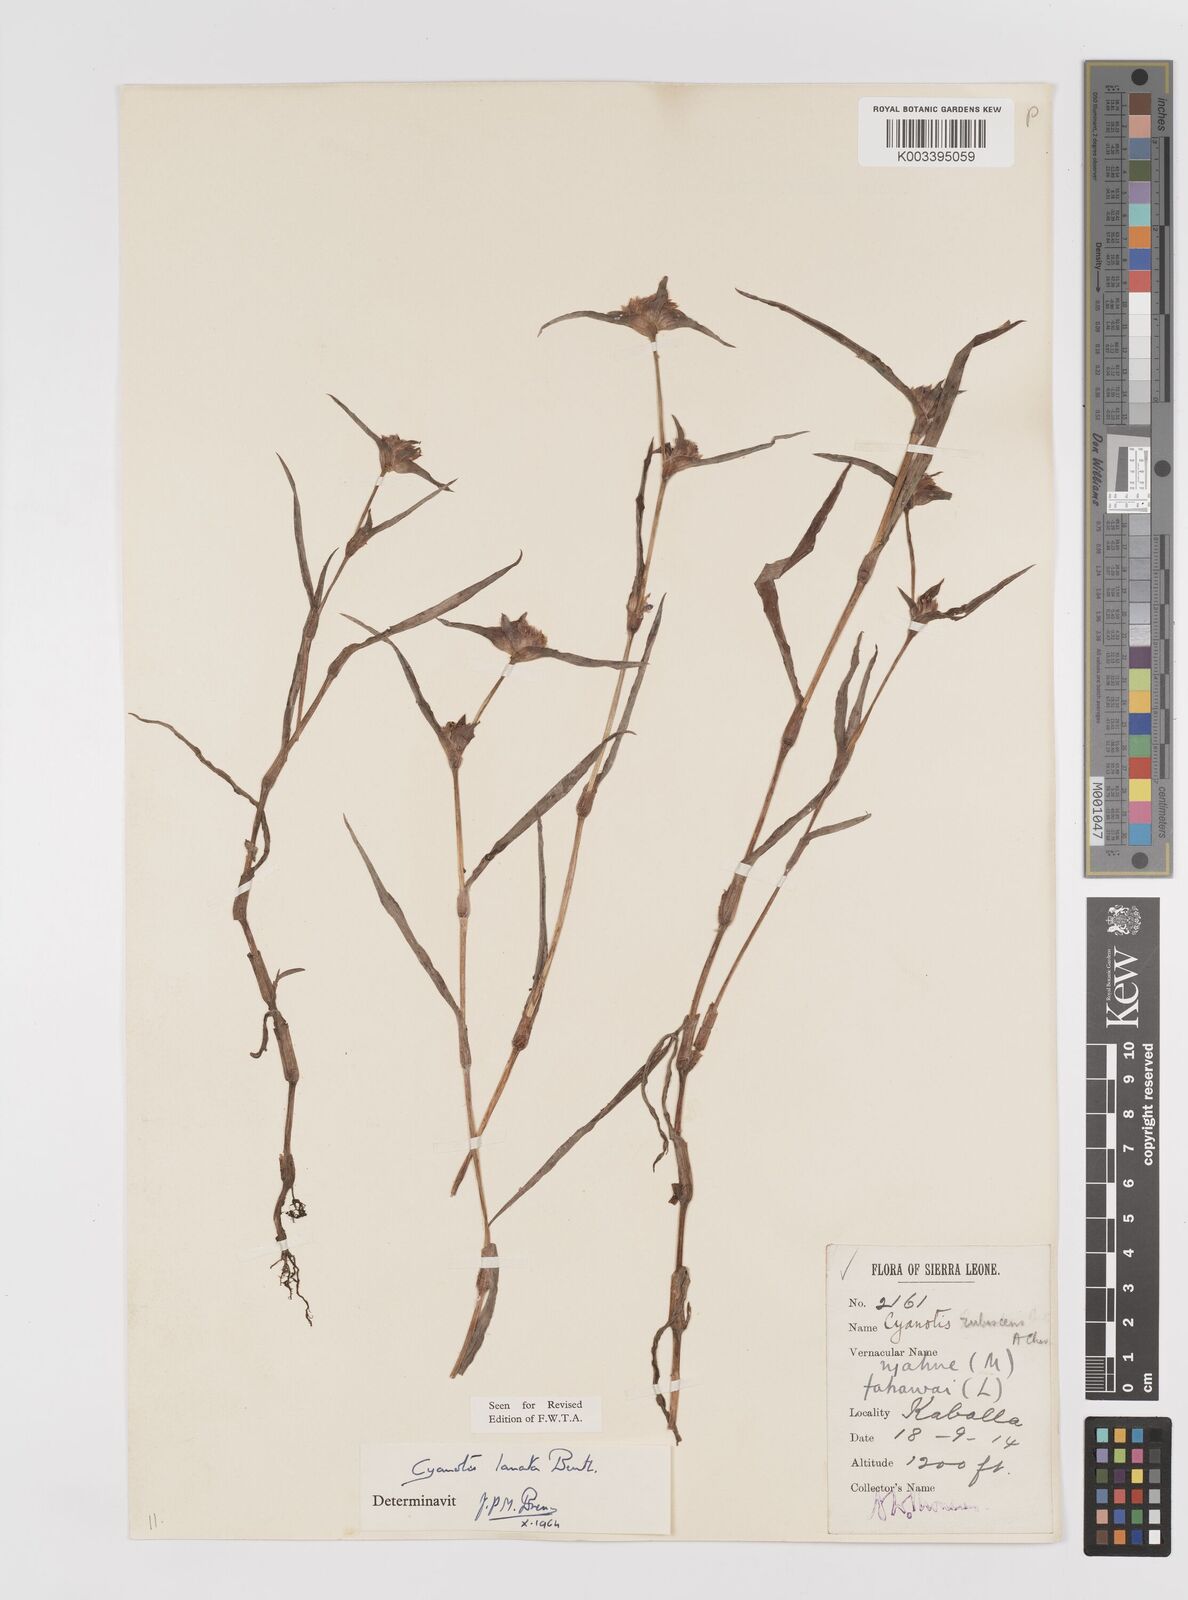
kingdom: Plantae
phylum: Tracheophyta
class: Liliopsida
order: Commelinales
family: Commelinaceae
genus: Cyanotis
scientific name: Cyanotis lanata
